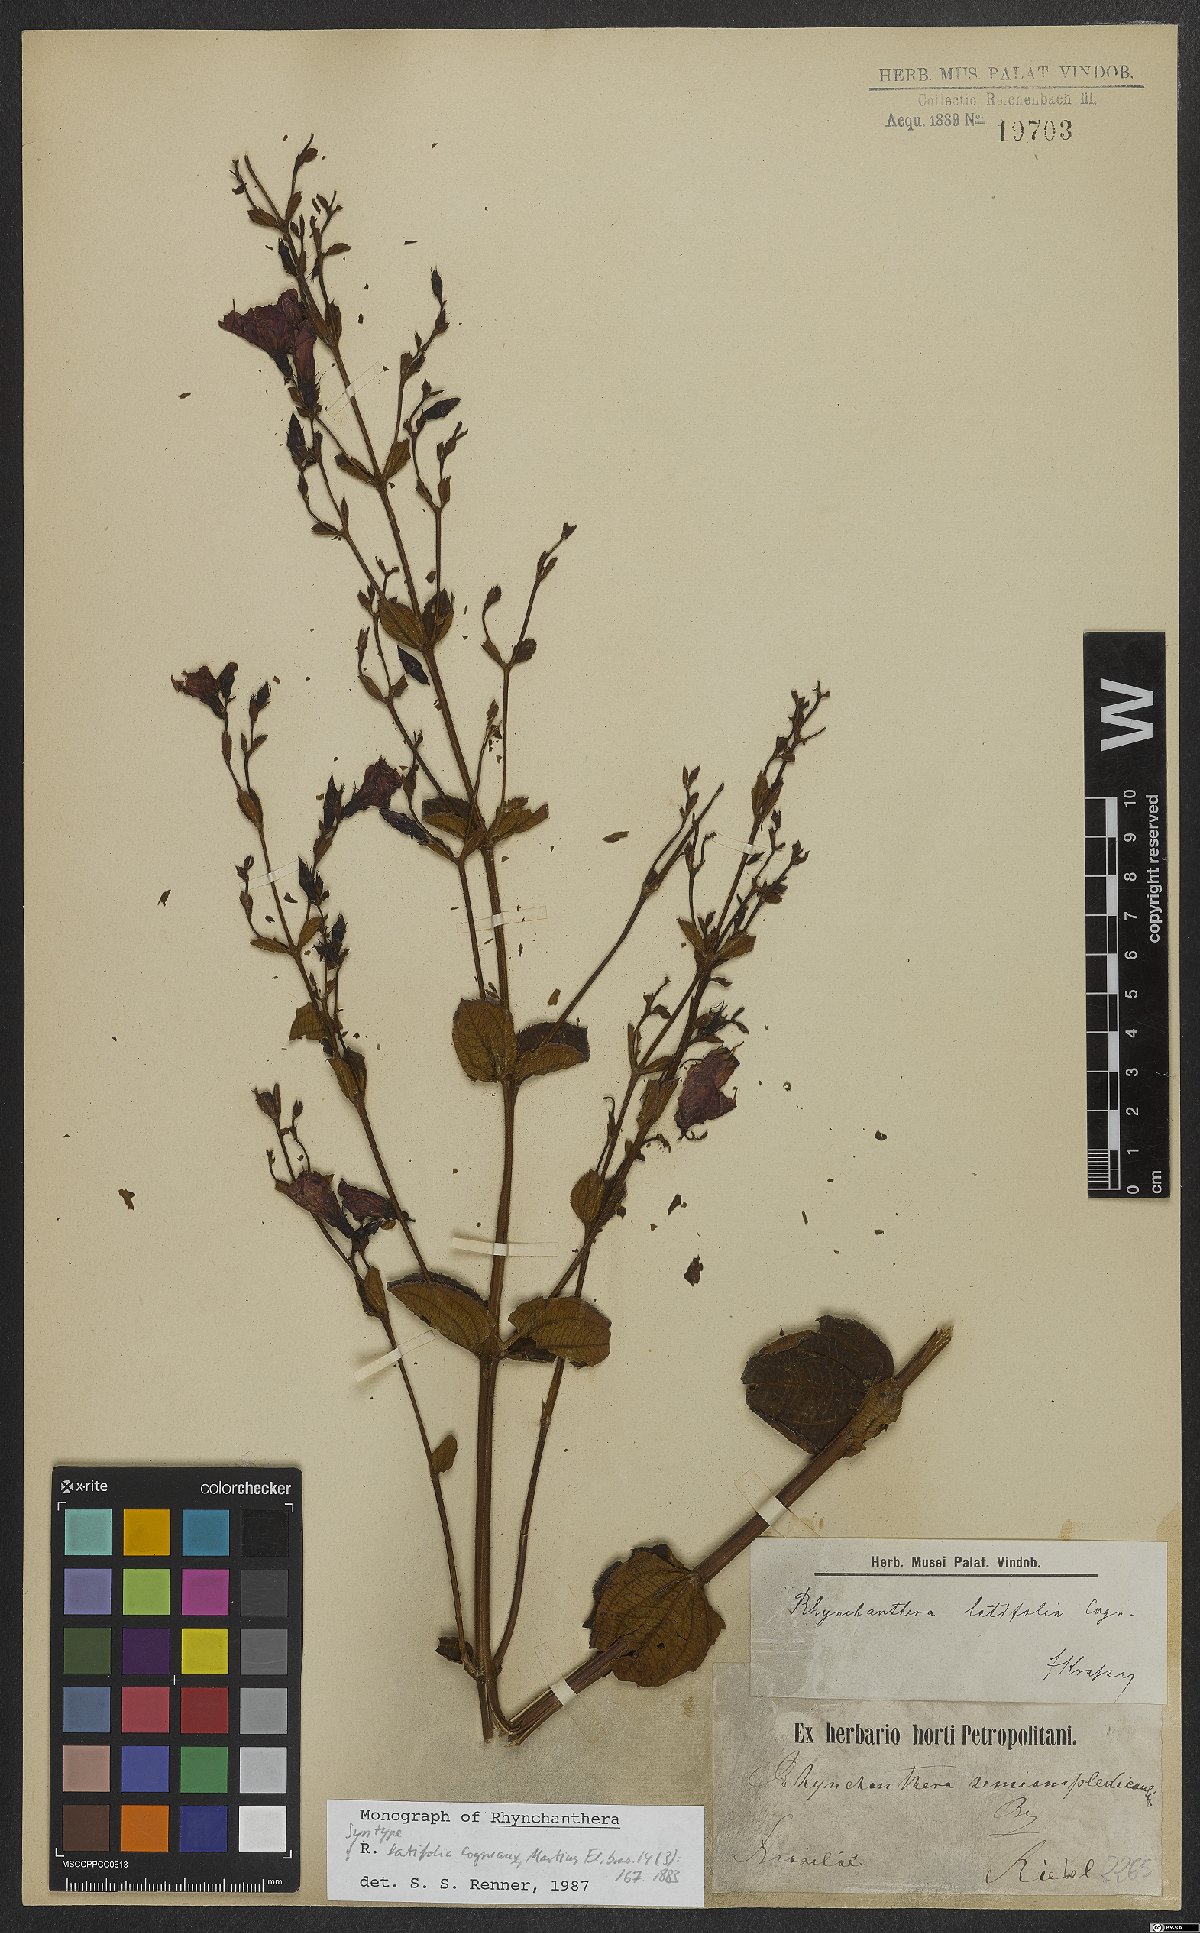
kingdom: Plantae
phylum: Tracheophyta
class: Magnoliopsida
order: Myrtales
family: Melastomataceae
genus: Rhynchanthera
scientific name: Rhynchanthera latifolia
